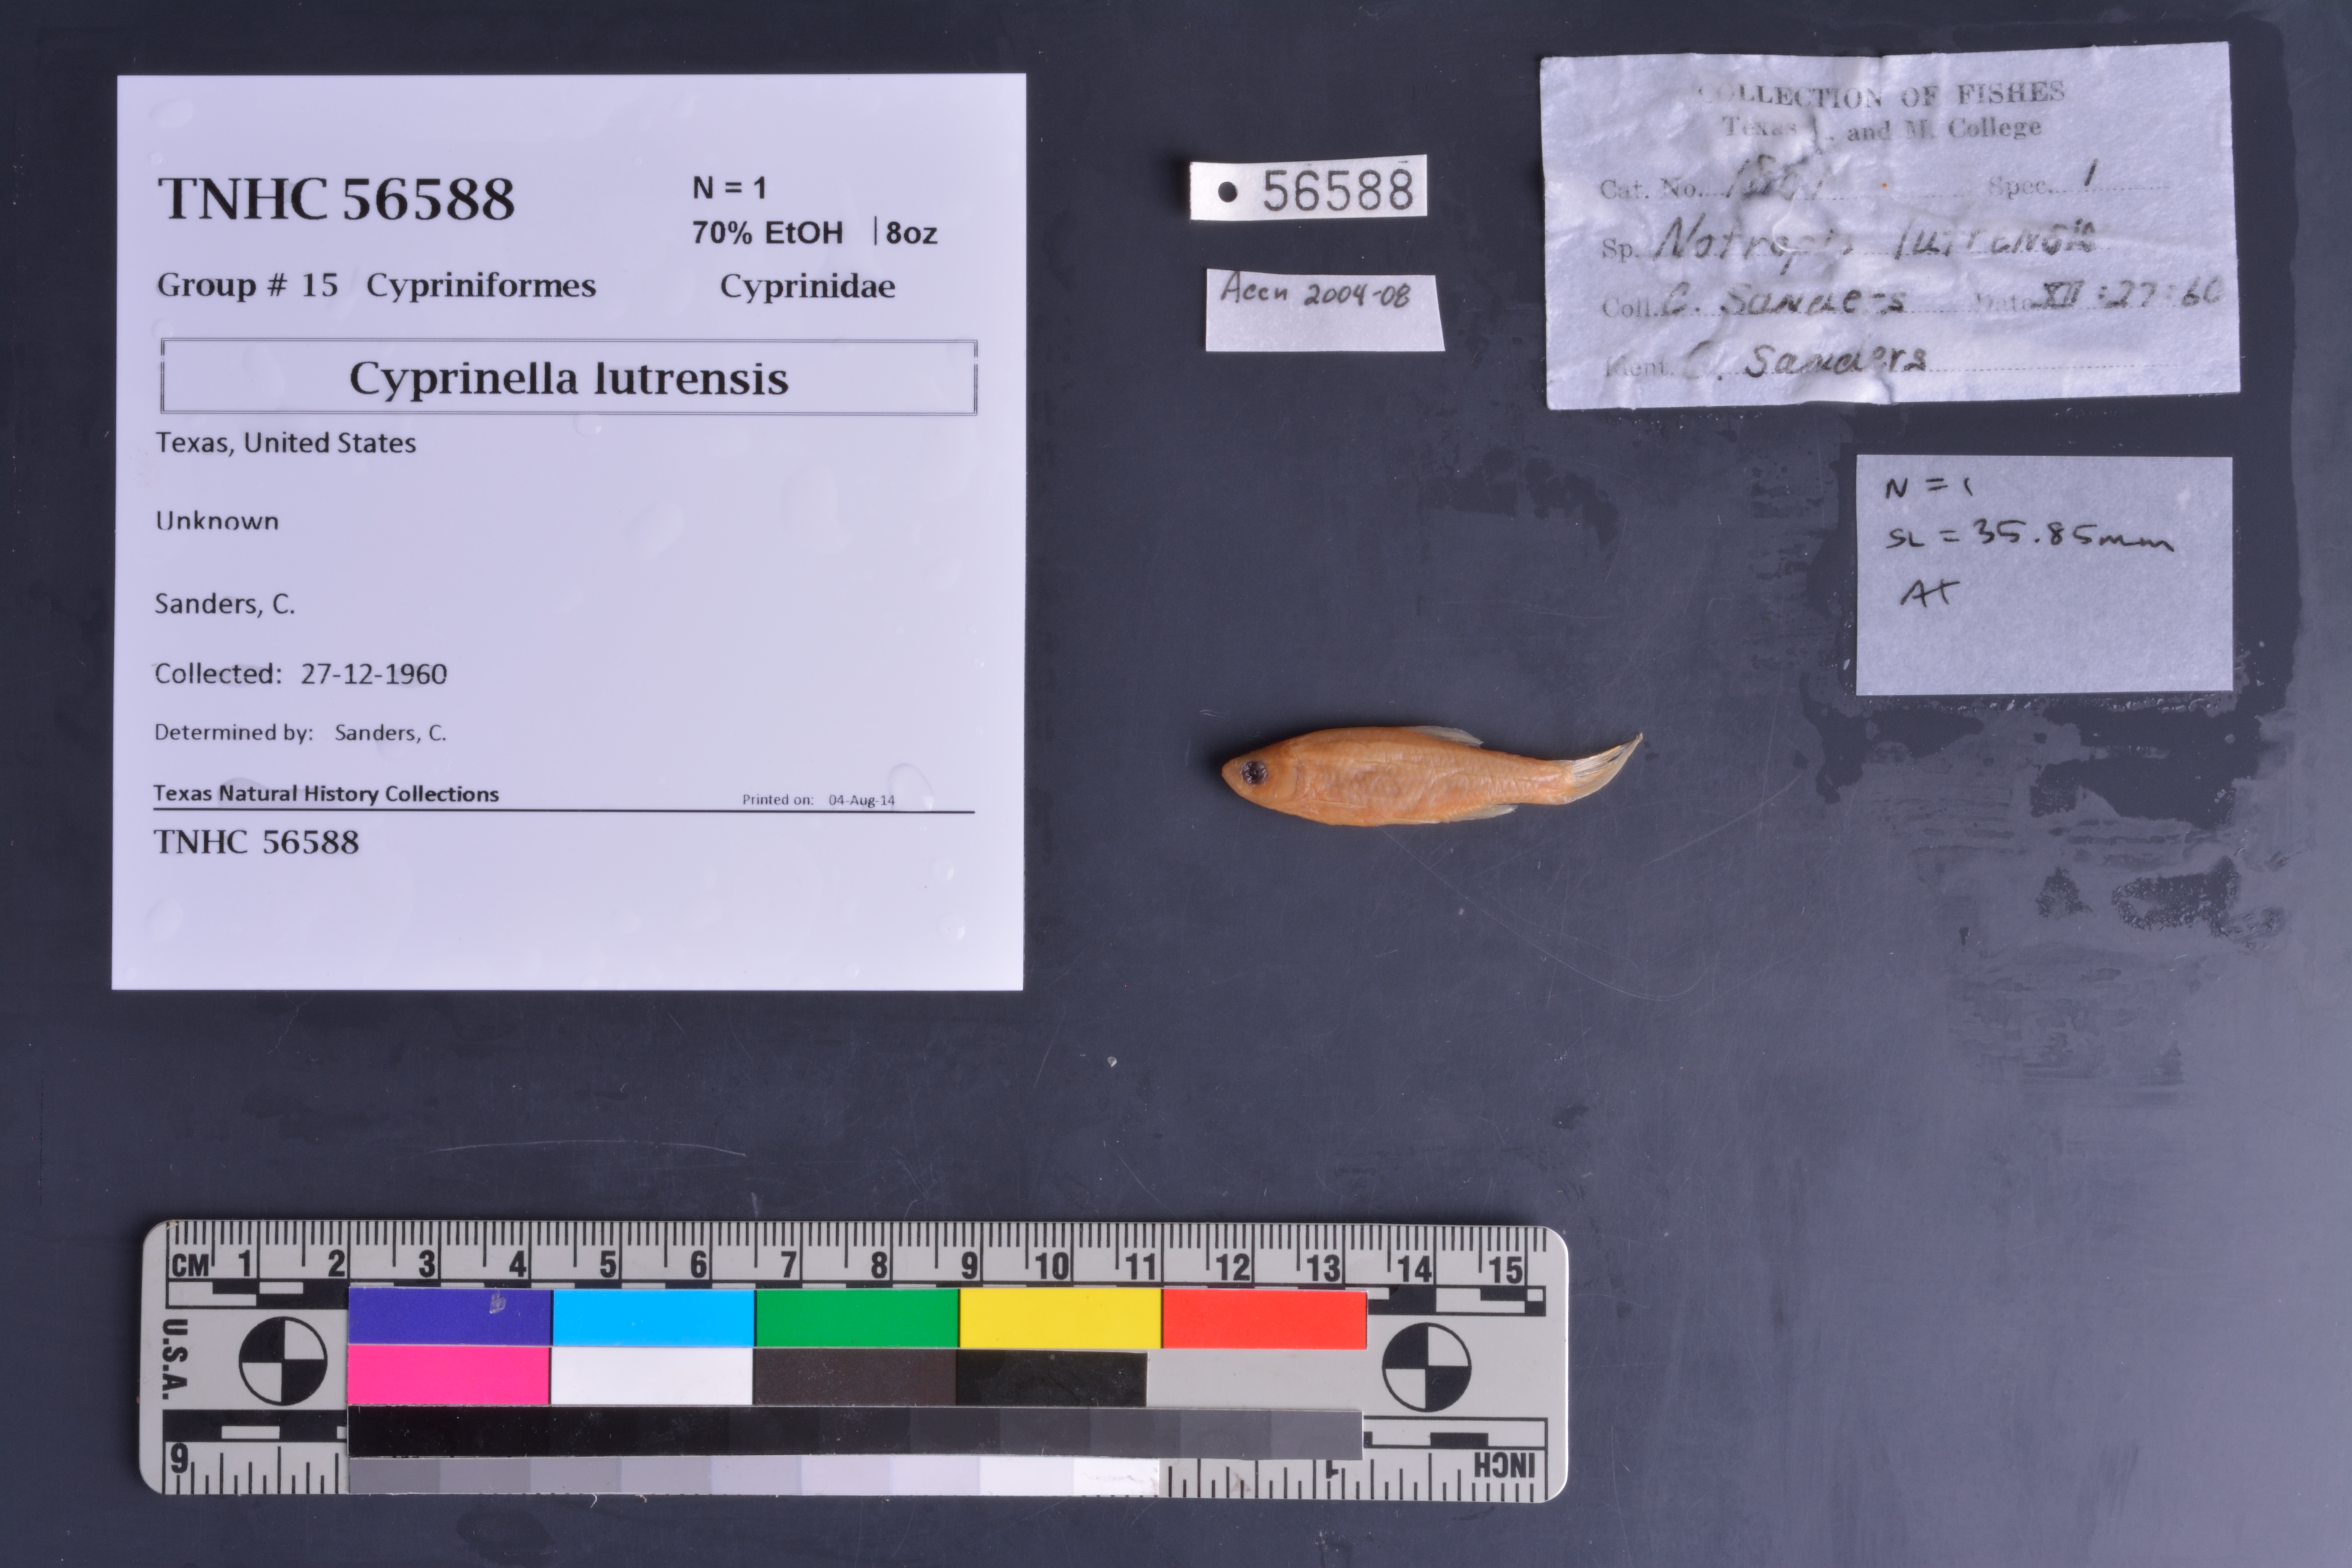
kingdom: Animalia
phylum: Chordata
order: Cypriniformes
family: Cyprinidae
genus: Cyprinella
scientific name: Cyprinella lutrensis
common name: Red shiner
